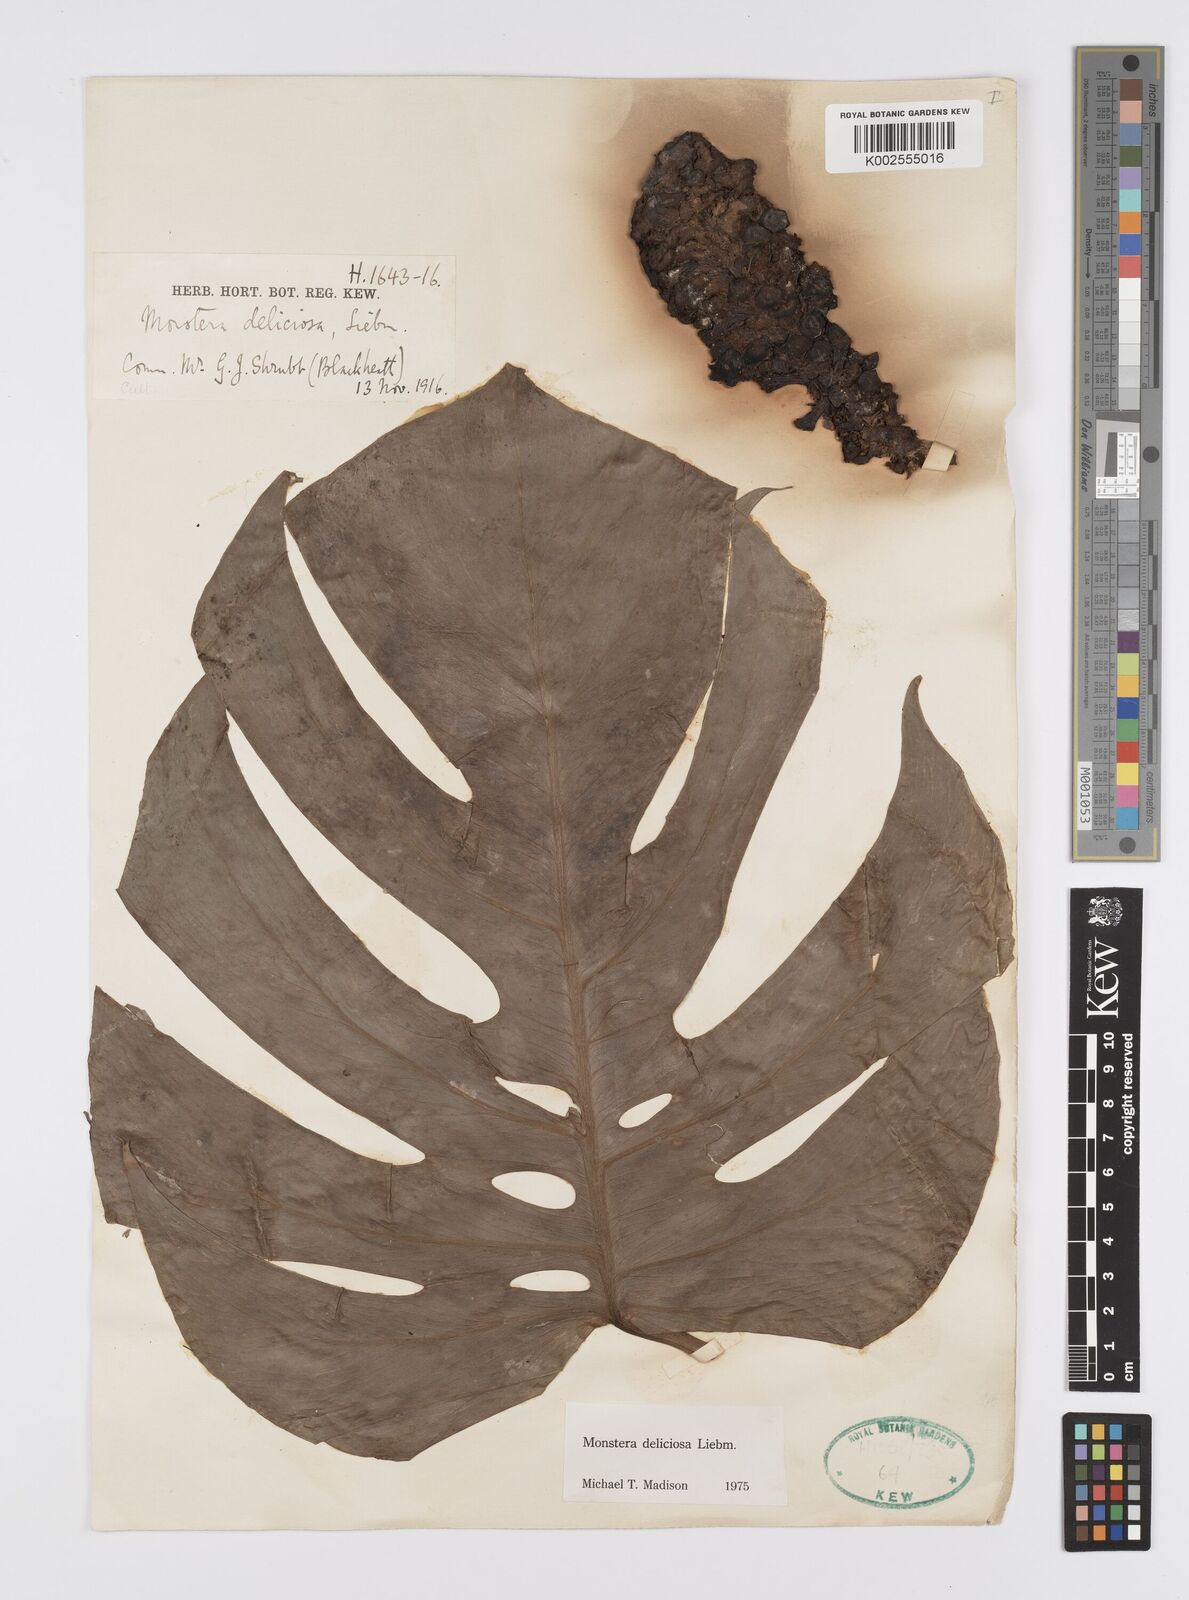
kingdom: Plantae
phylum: Tracheophyta
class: Liliopsida
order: Alismatales
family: Araceae
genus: Monstera
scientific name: Monstera deliciosa
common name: Cut-leaf-philodendron
